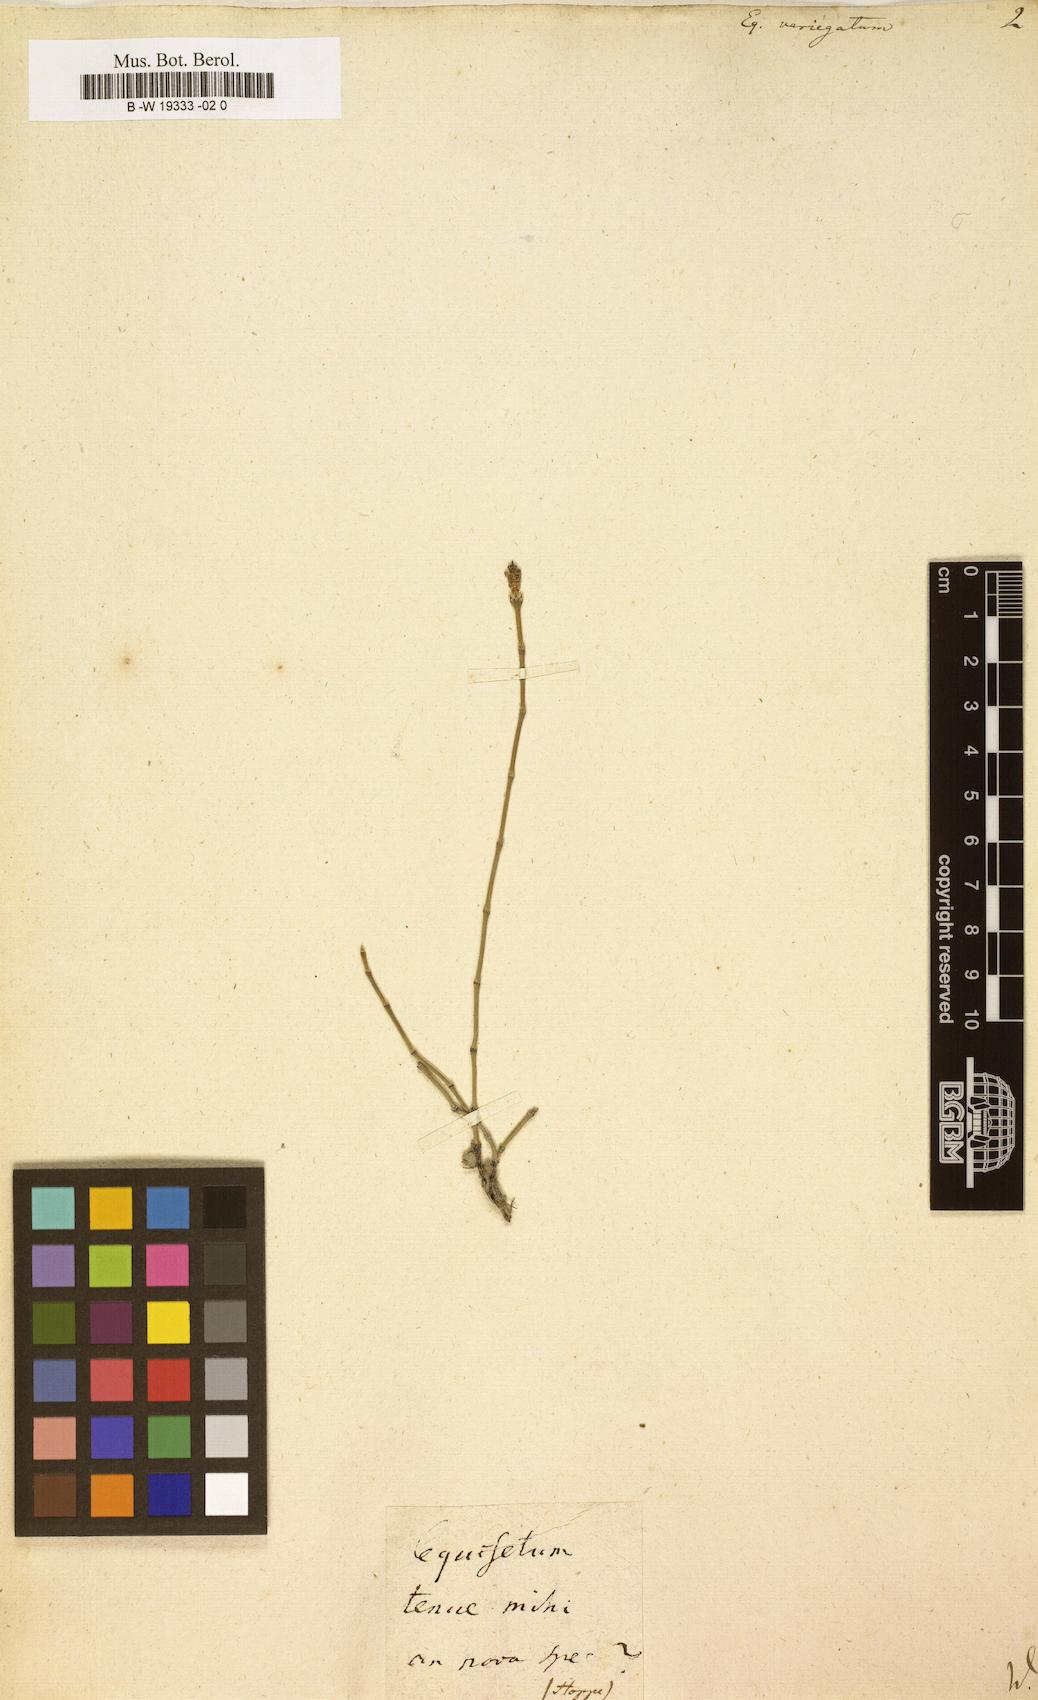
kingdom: Plantae
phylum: Tracheophyta
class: Polypodiopsida
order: Equisetales
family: Equisetaceae
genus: Equisetum
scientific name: Equisetum variegatum
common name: Variegated horsetail
